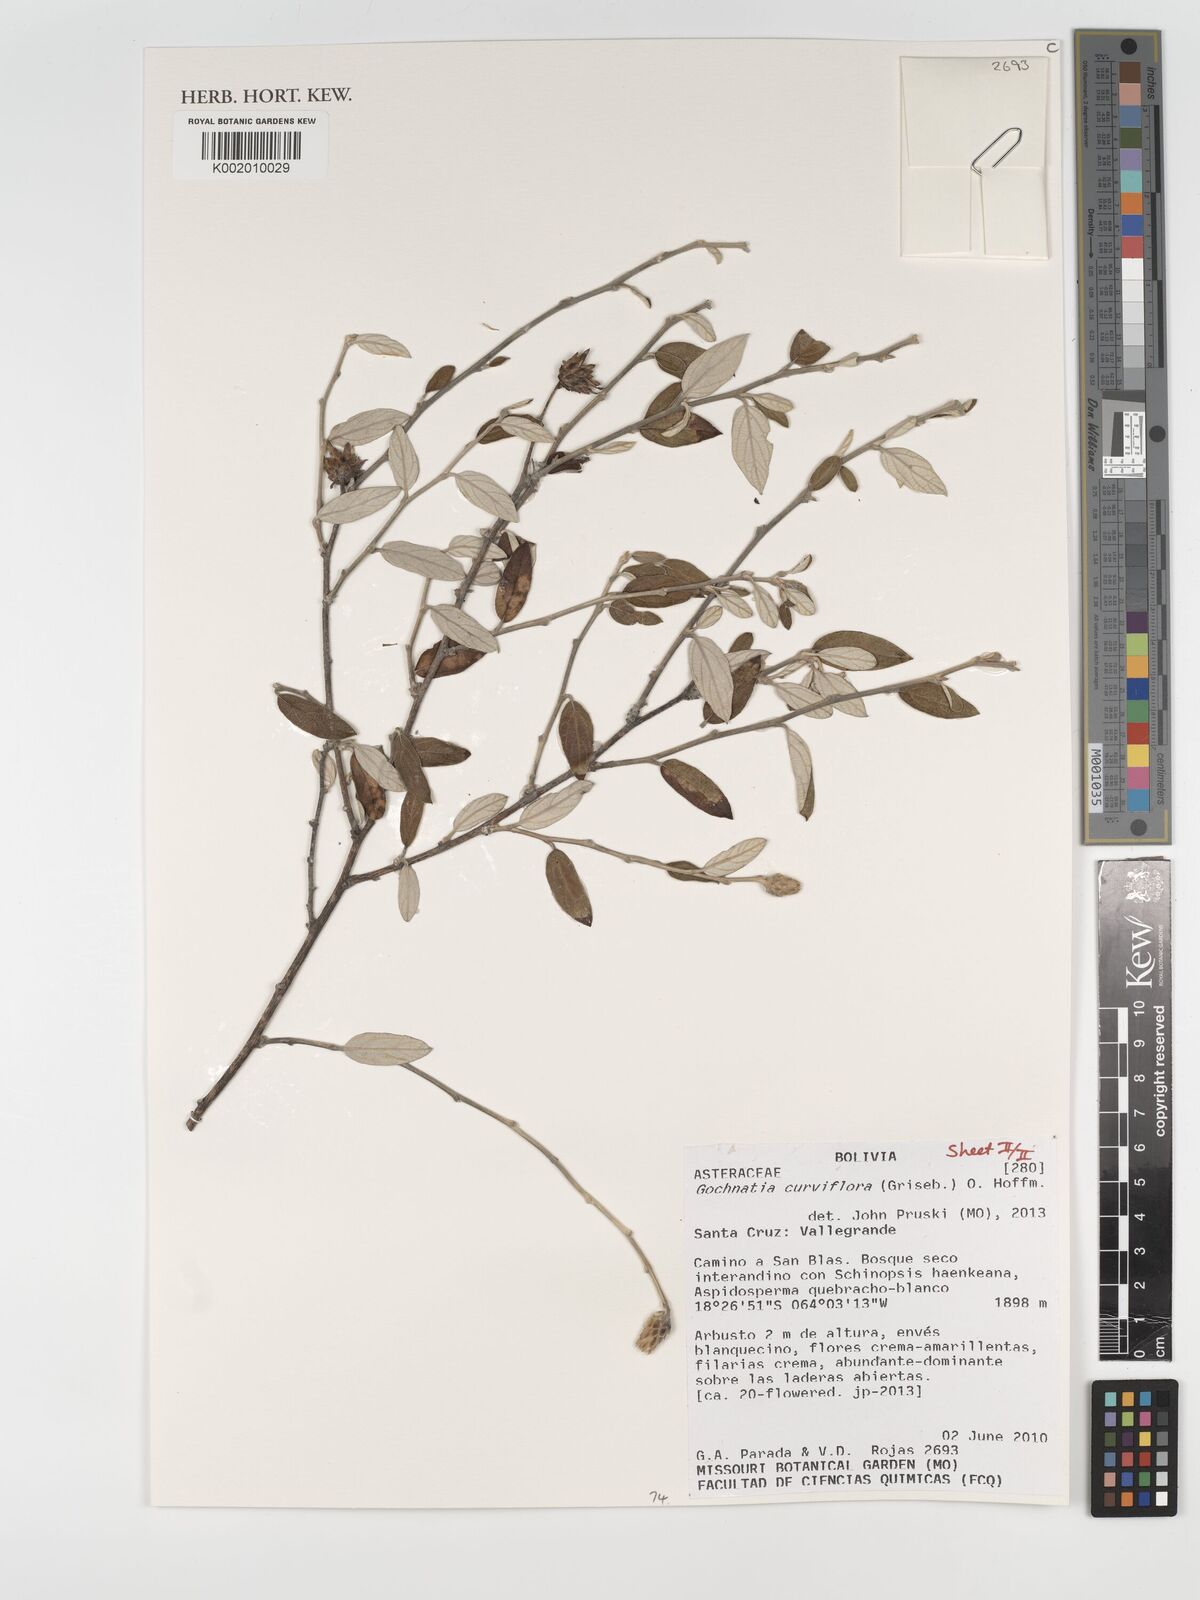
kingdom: Plantae
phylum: Tracheophyta
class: Magnoliopsida
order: Asterales
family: Asteraceae
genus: Gochnatia
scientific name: Gochnatia curviflora
